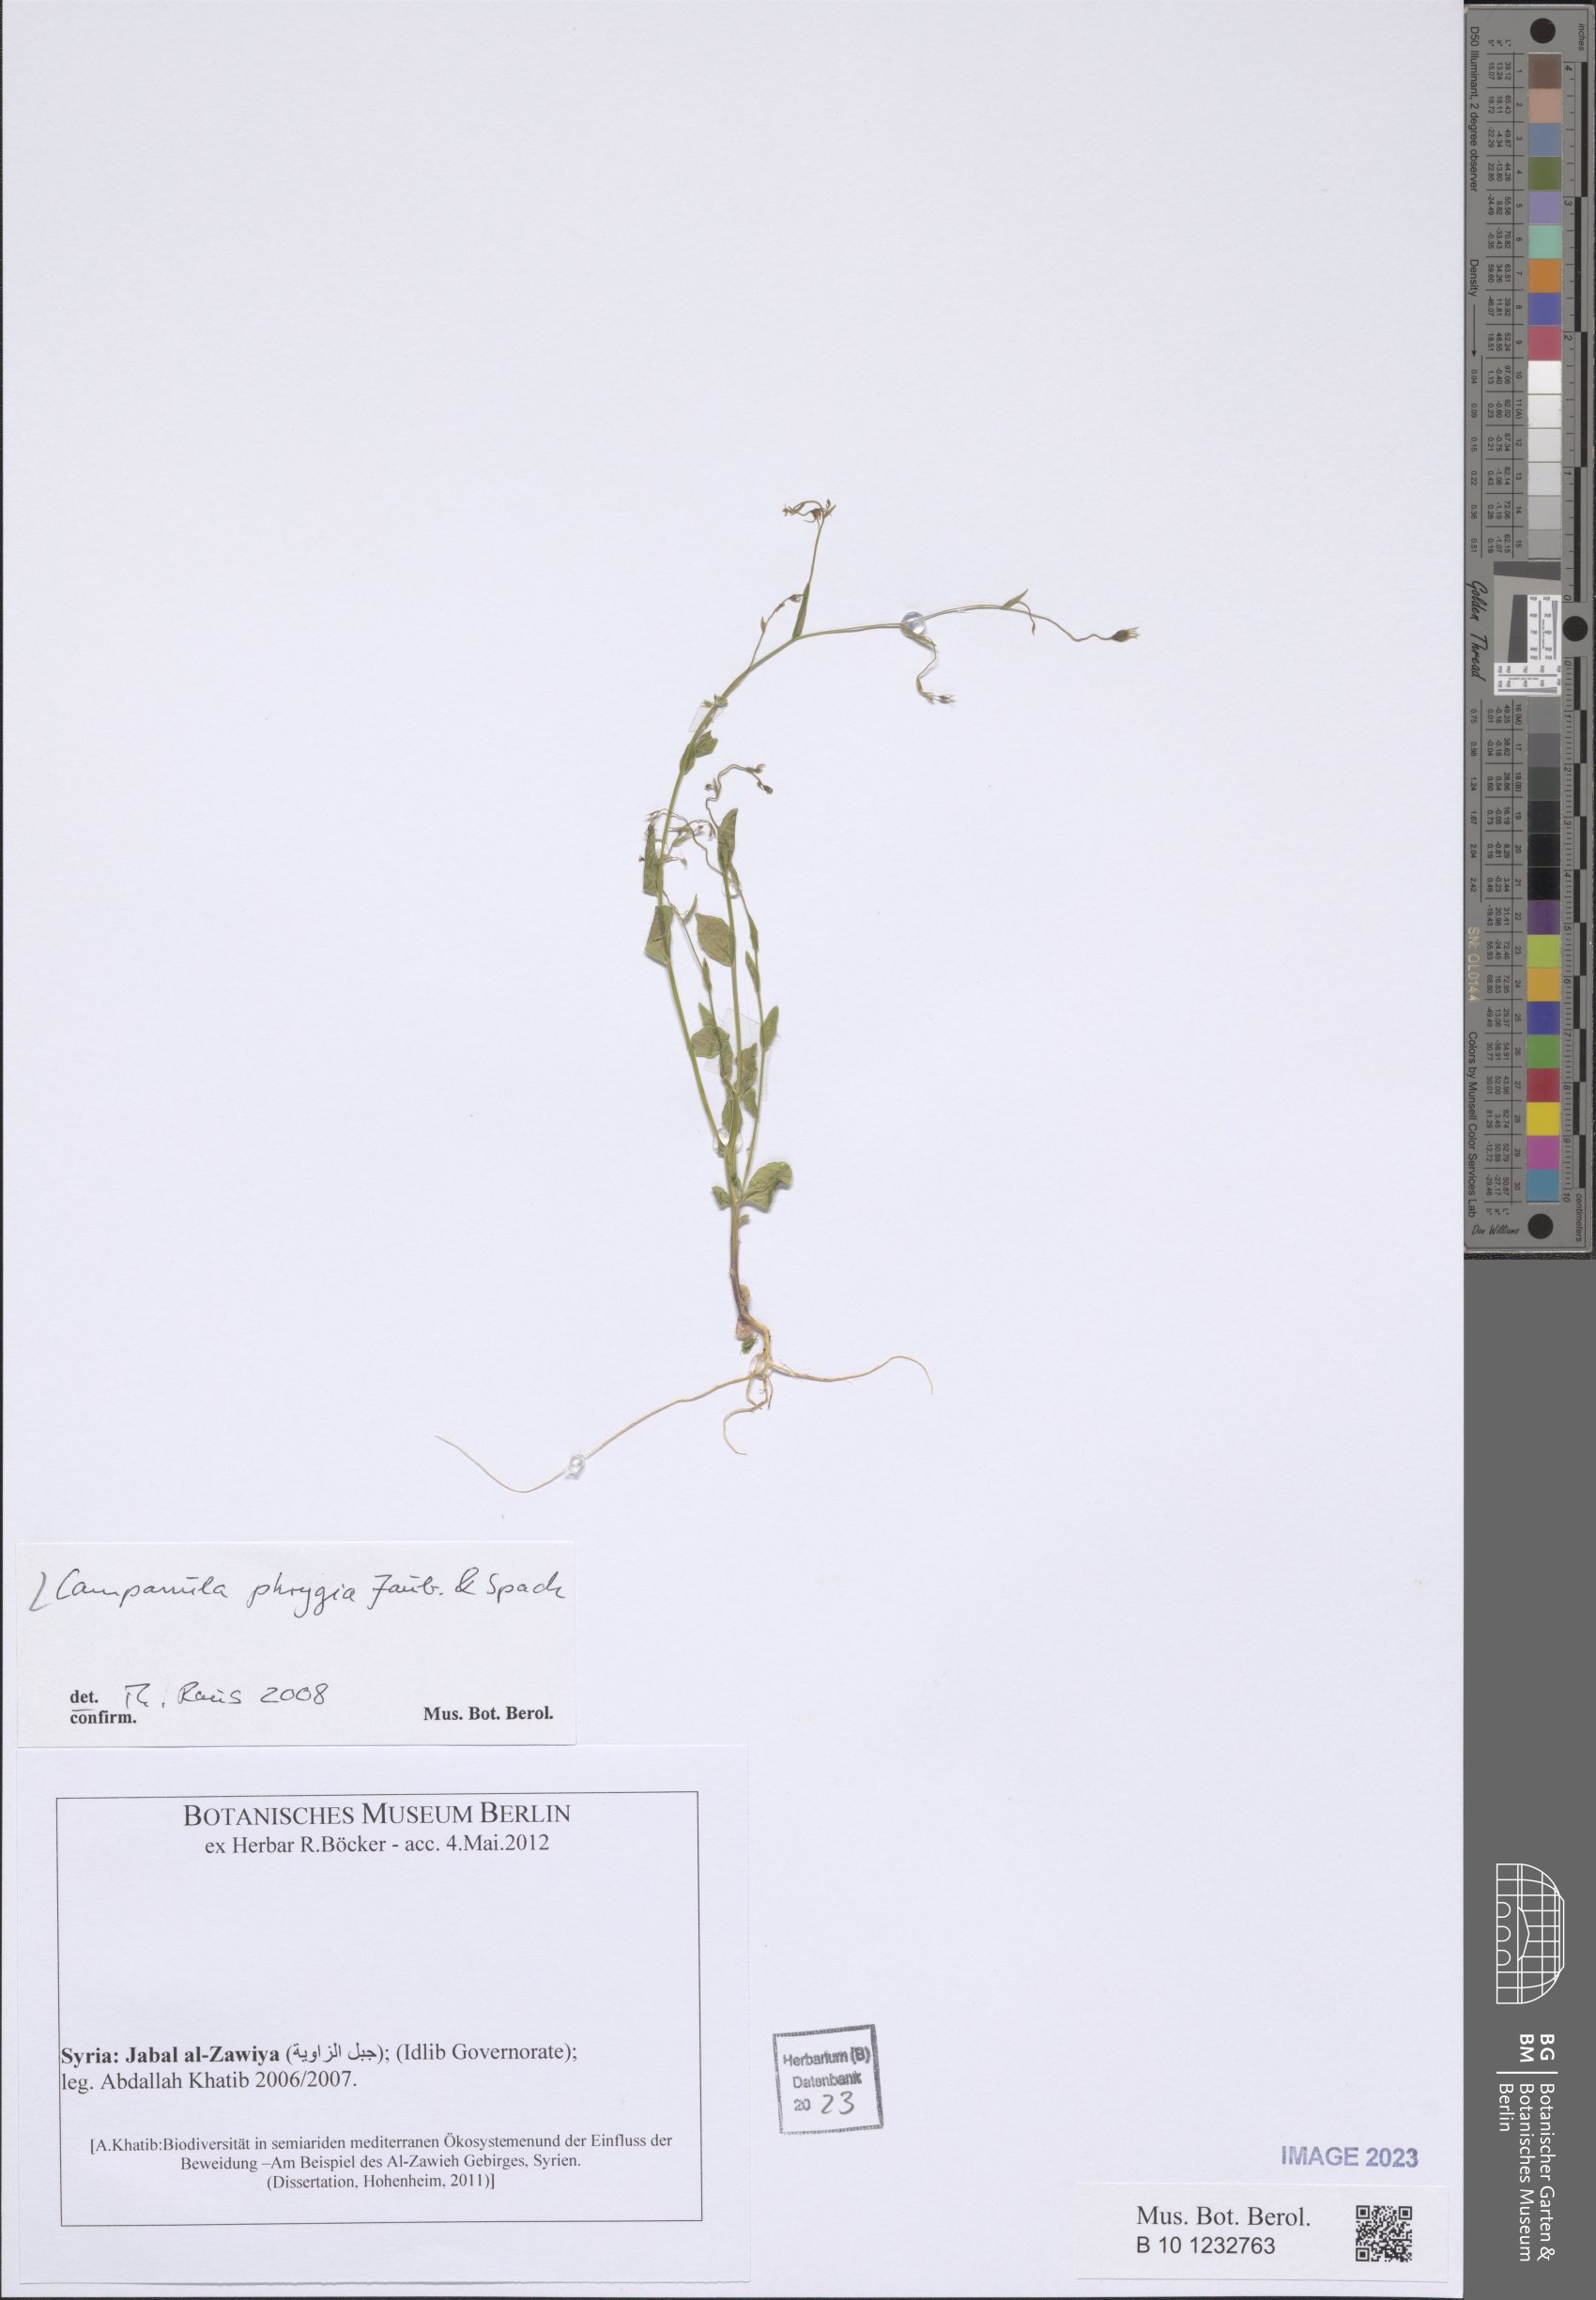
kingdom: Plantae
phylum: Tracheophyta
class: Magnoliopsida
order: Asterales
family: Campanulaceae
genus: Campanula
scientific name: Campanula phrygia
